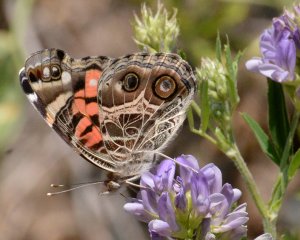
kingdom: Animalia
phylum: Arthropoda
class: Insecta
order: Lepidoptera
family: Nymphalidae
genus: Vanessa
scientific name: Vanessa virginiensis
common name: American Lady
